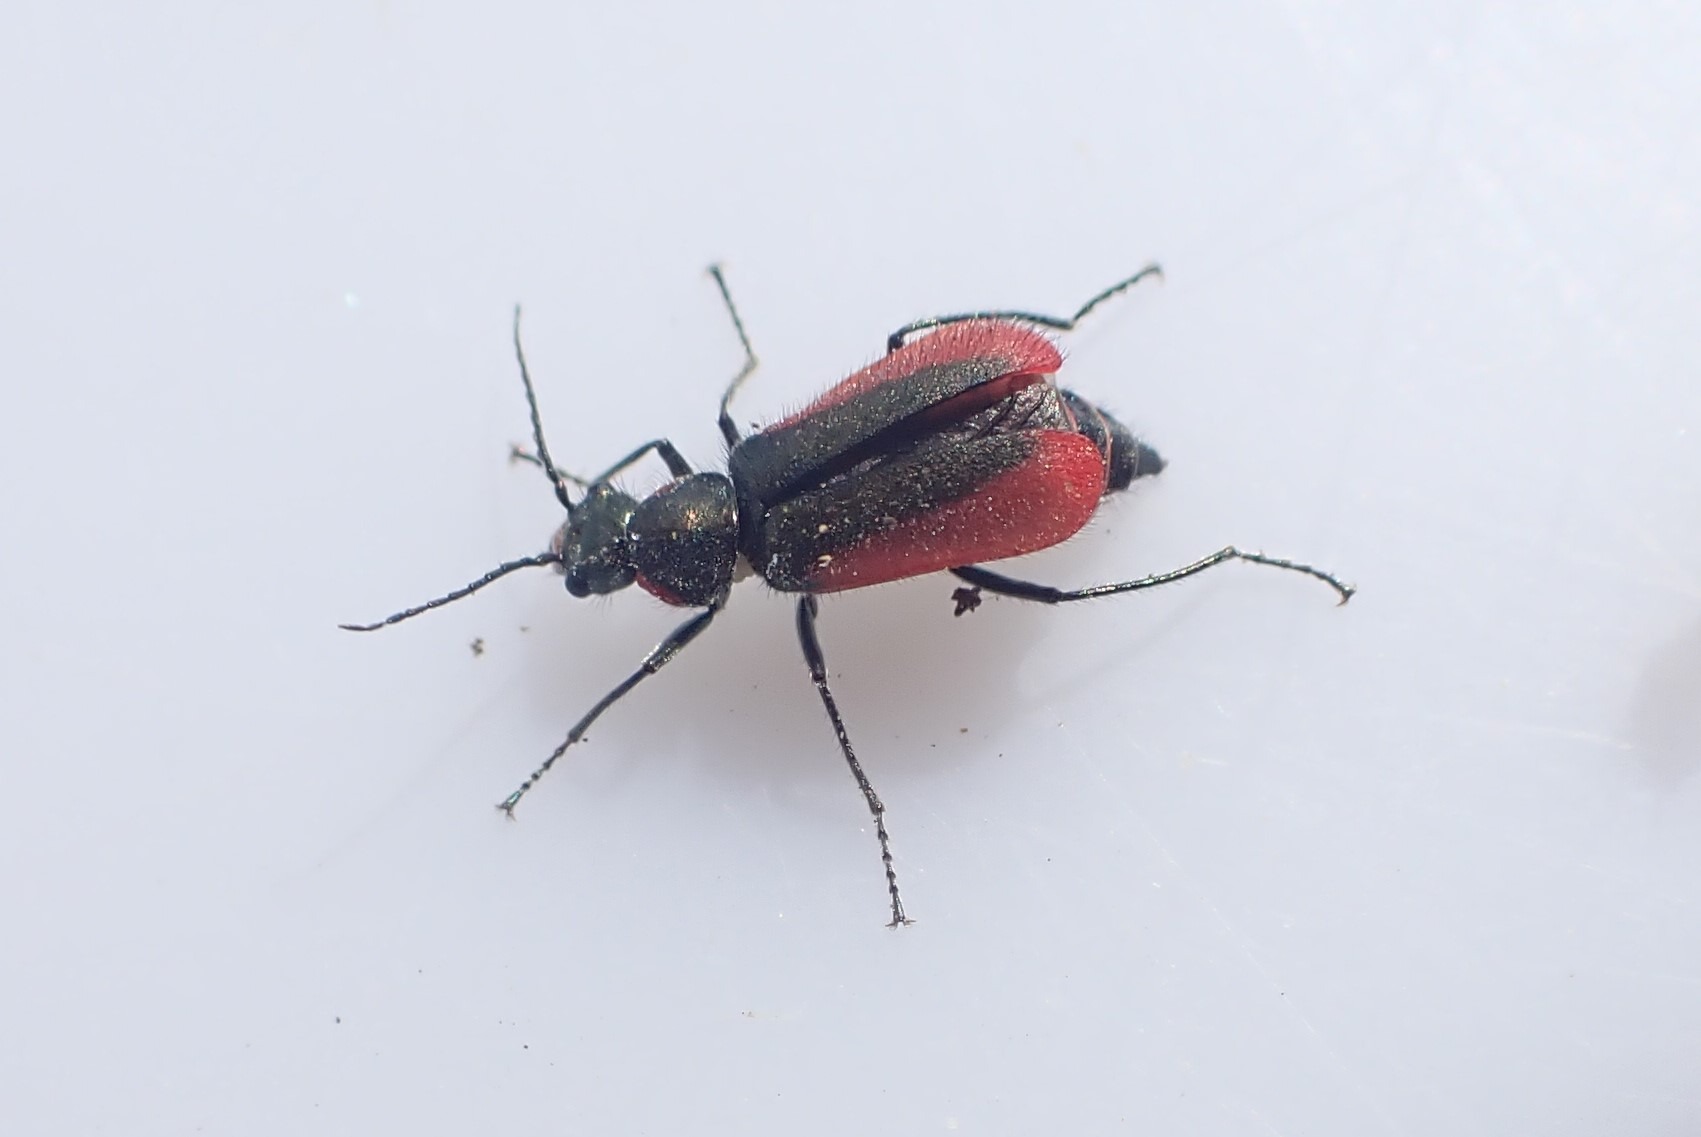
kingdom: Animalia
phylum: Arthropoda
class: Insecta
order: Coleoptera
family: Melyridae
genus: Malachius
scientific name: Malachius aeneus
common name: Stor malakitbille
